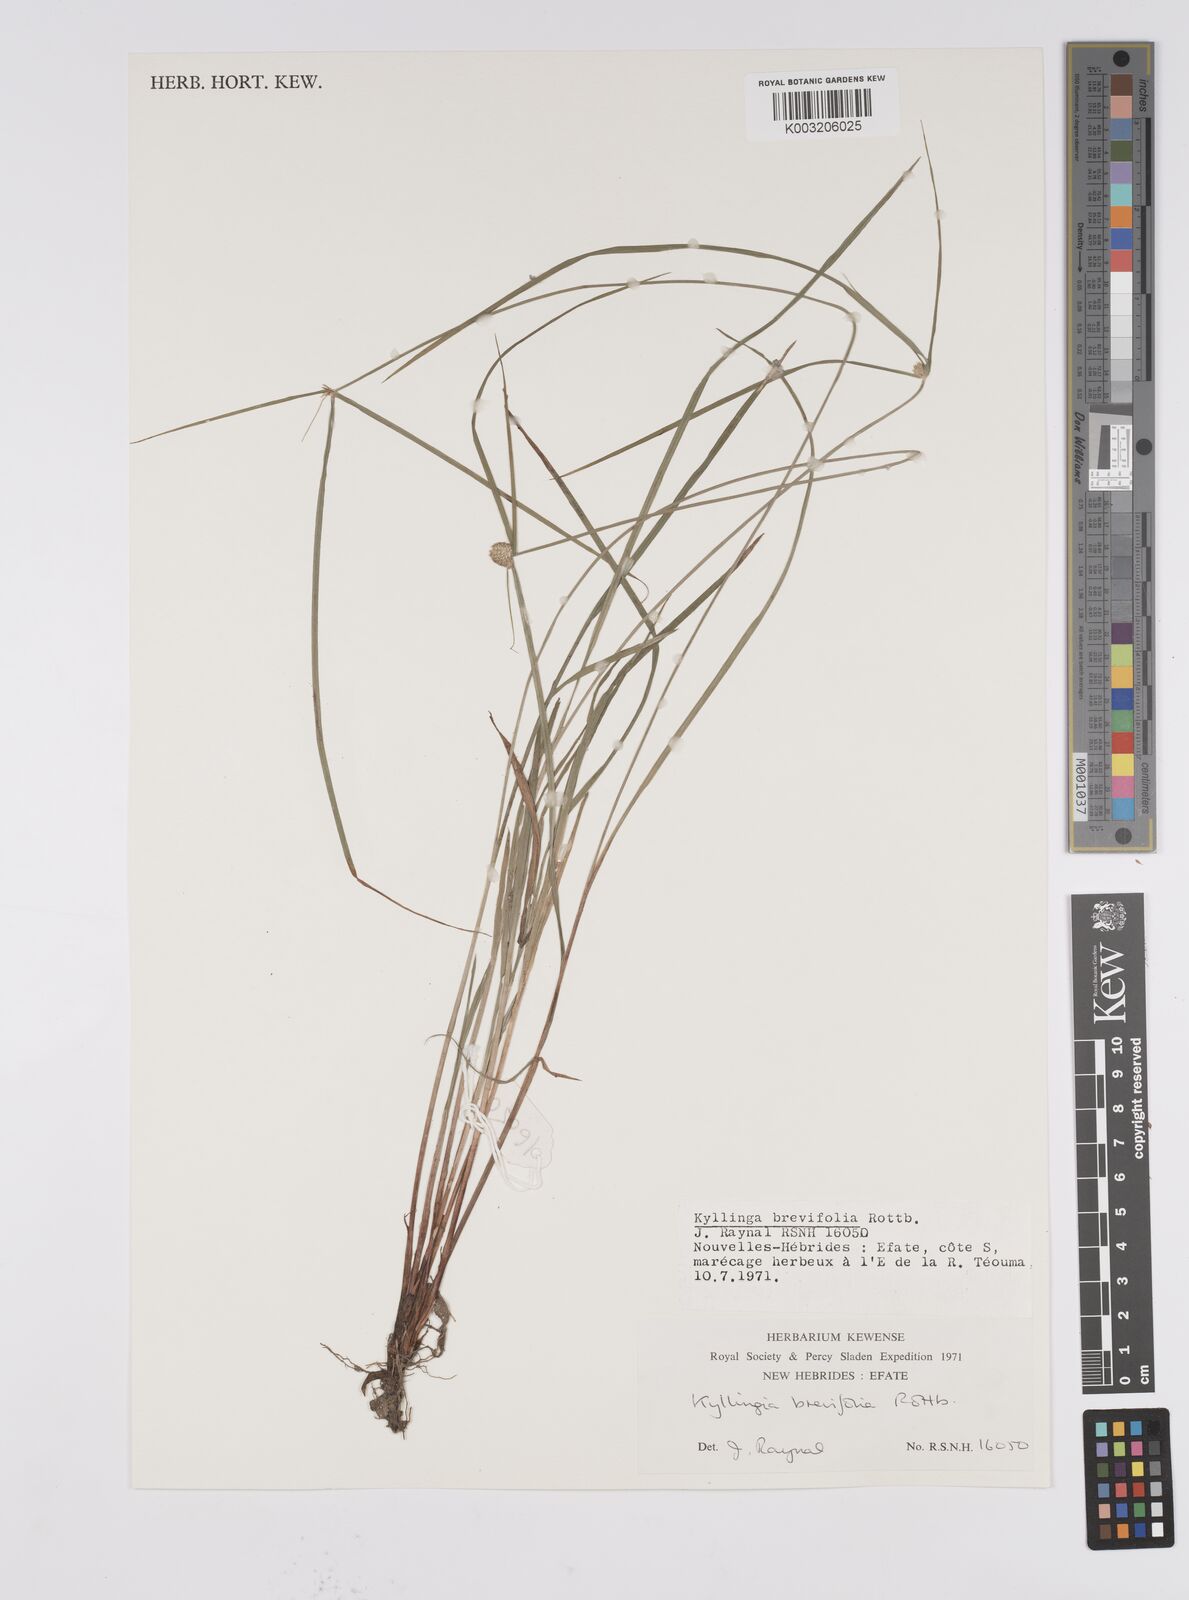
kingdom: Plantae
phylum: Tracheophyta
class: Liliopsida
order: Poales
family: Cyperaceae
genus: Cyperus
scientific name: Cyperus brevifolius
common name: Globe kyllinga
